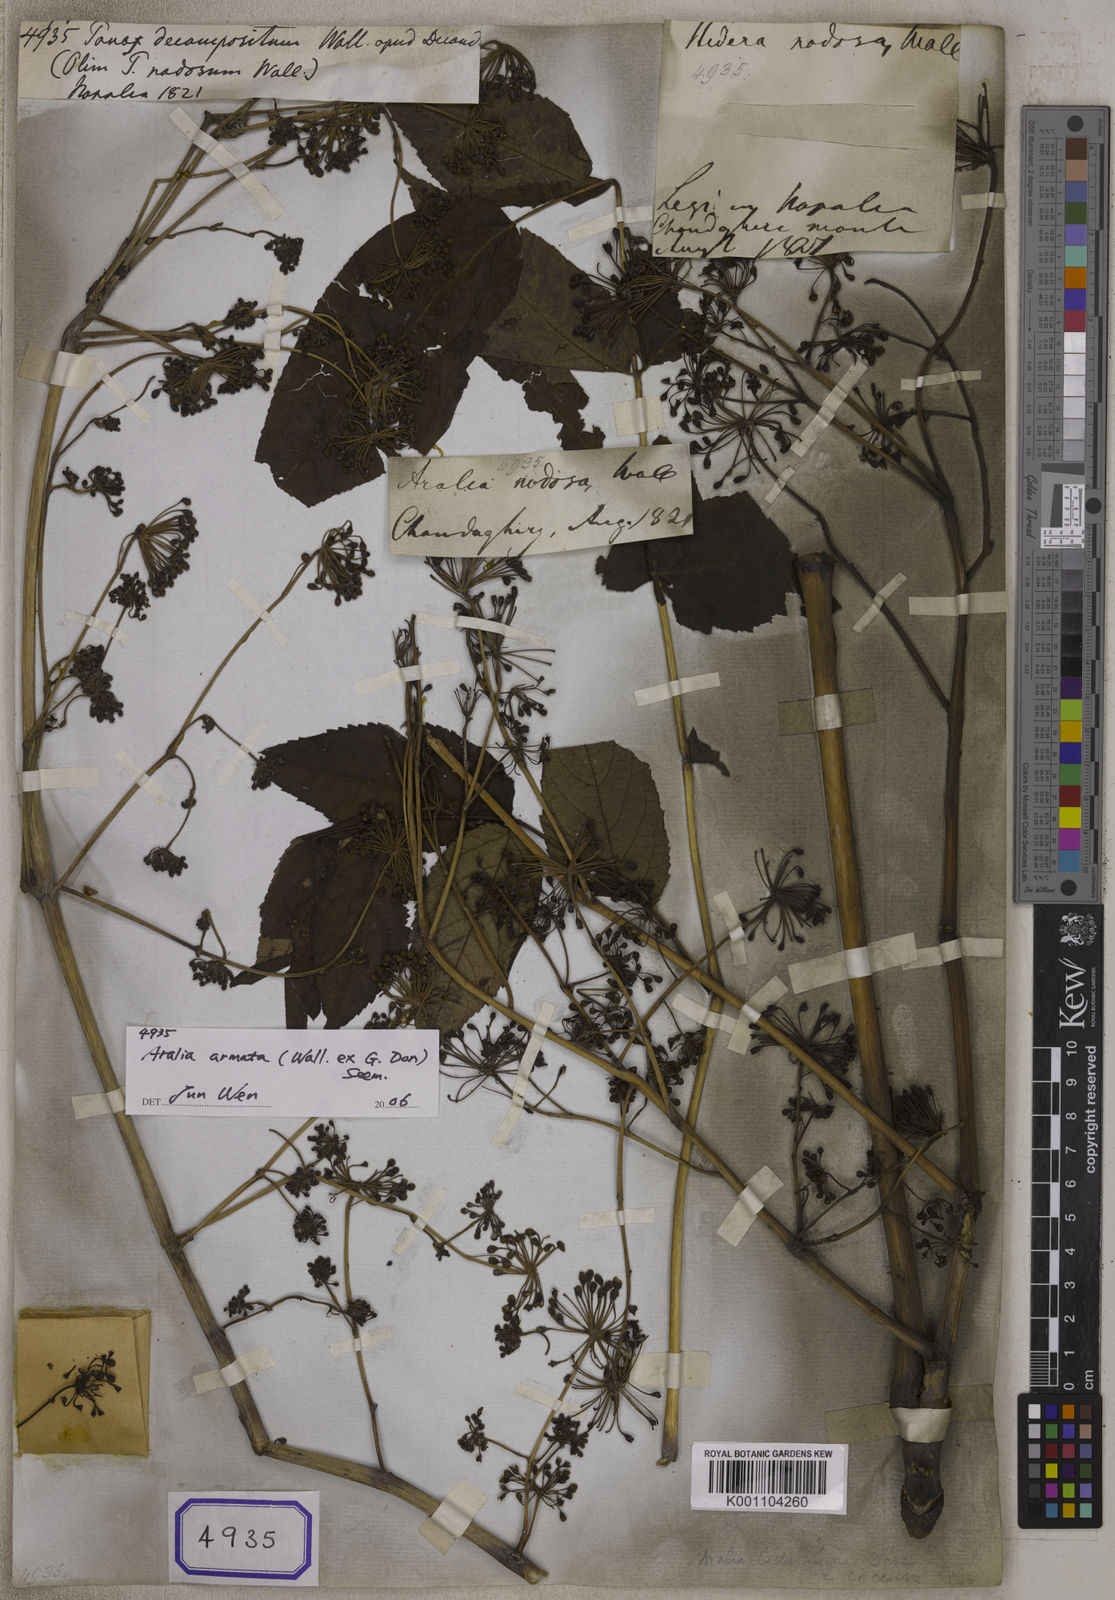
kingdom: Plantae
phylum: Tracheophyta
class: Magnoliopsida
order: Apiales
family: Araliaceae
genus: Panax
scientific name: Panax
